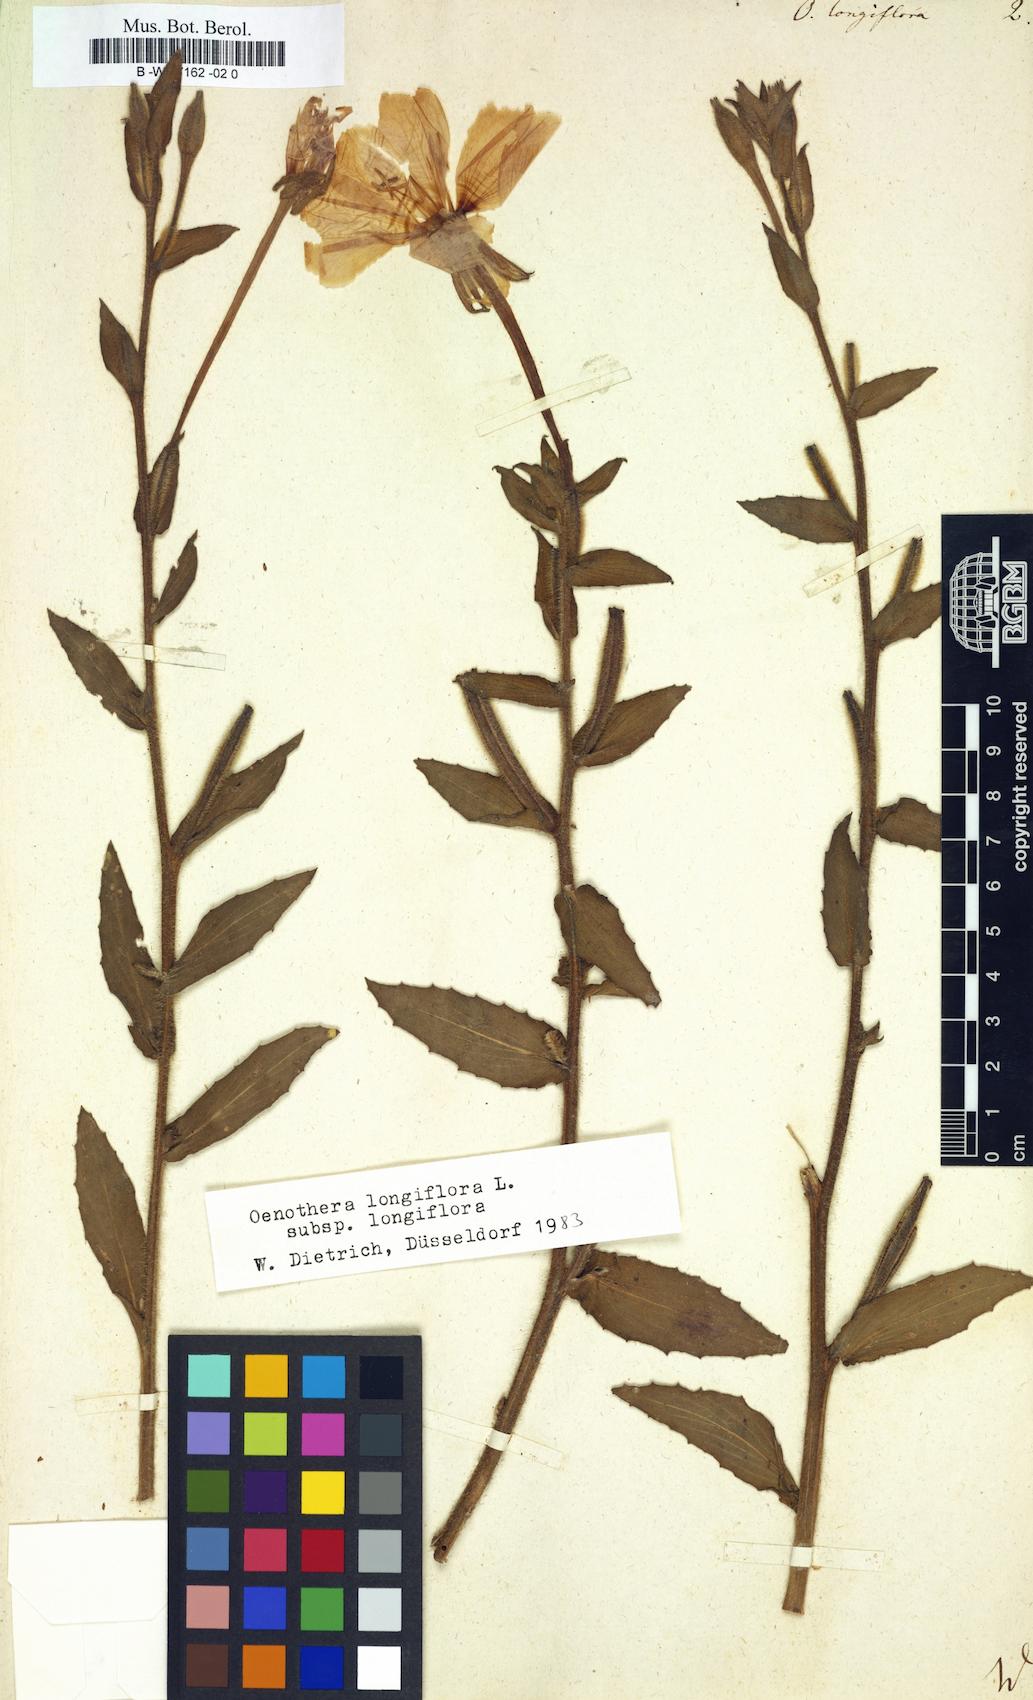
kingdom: Plantae
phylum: Tracheophyta
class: Magnoliopsida
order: Myrtales
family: Onagraceae
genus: Oenothera
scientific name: Oenothera longiflora
